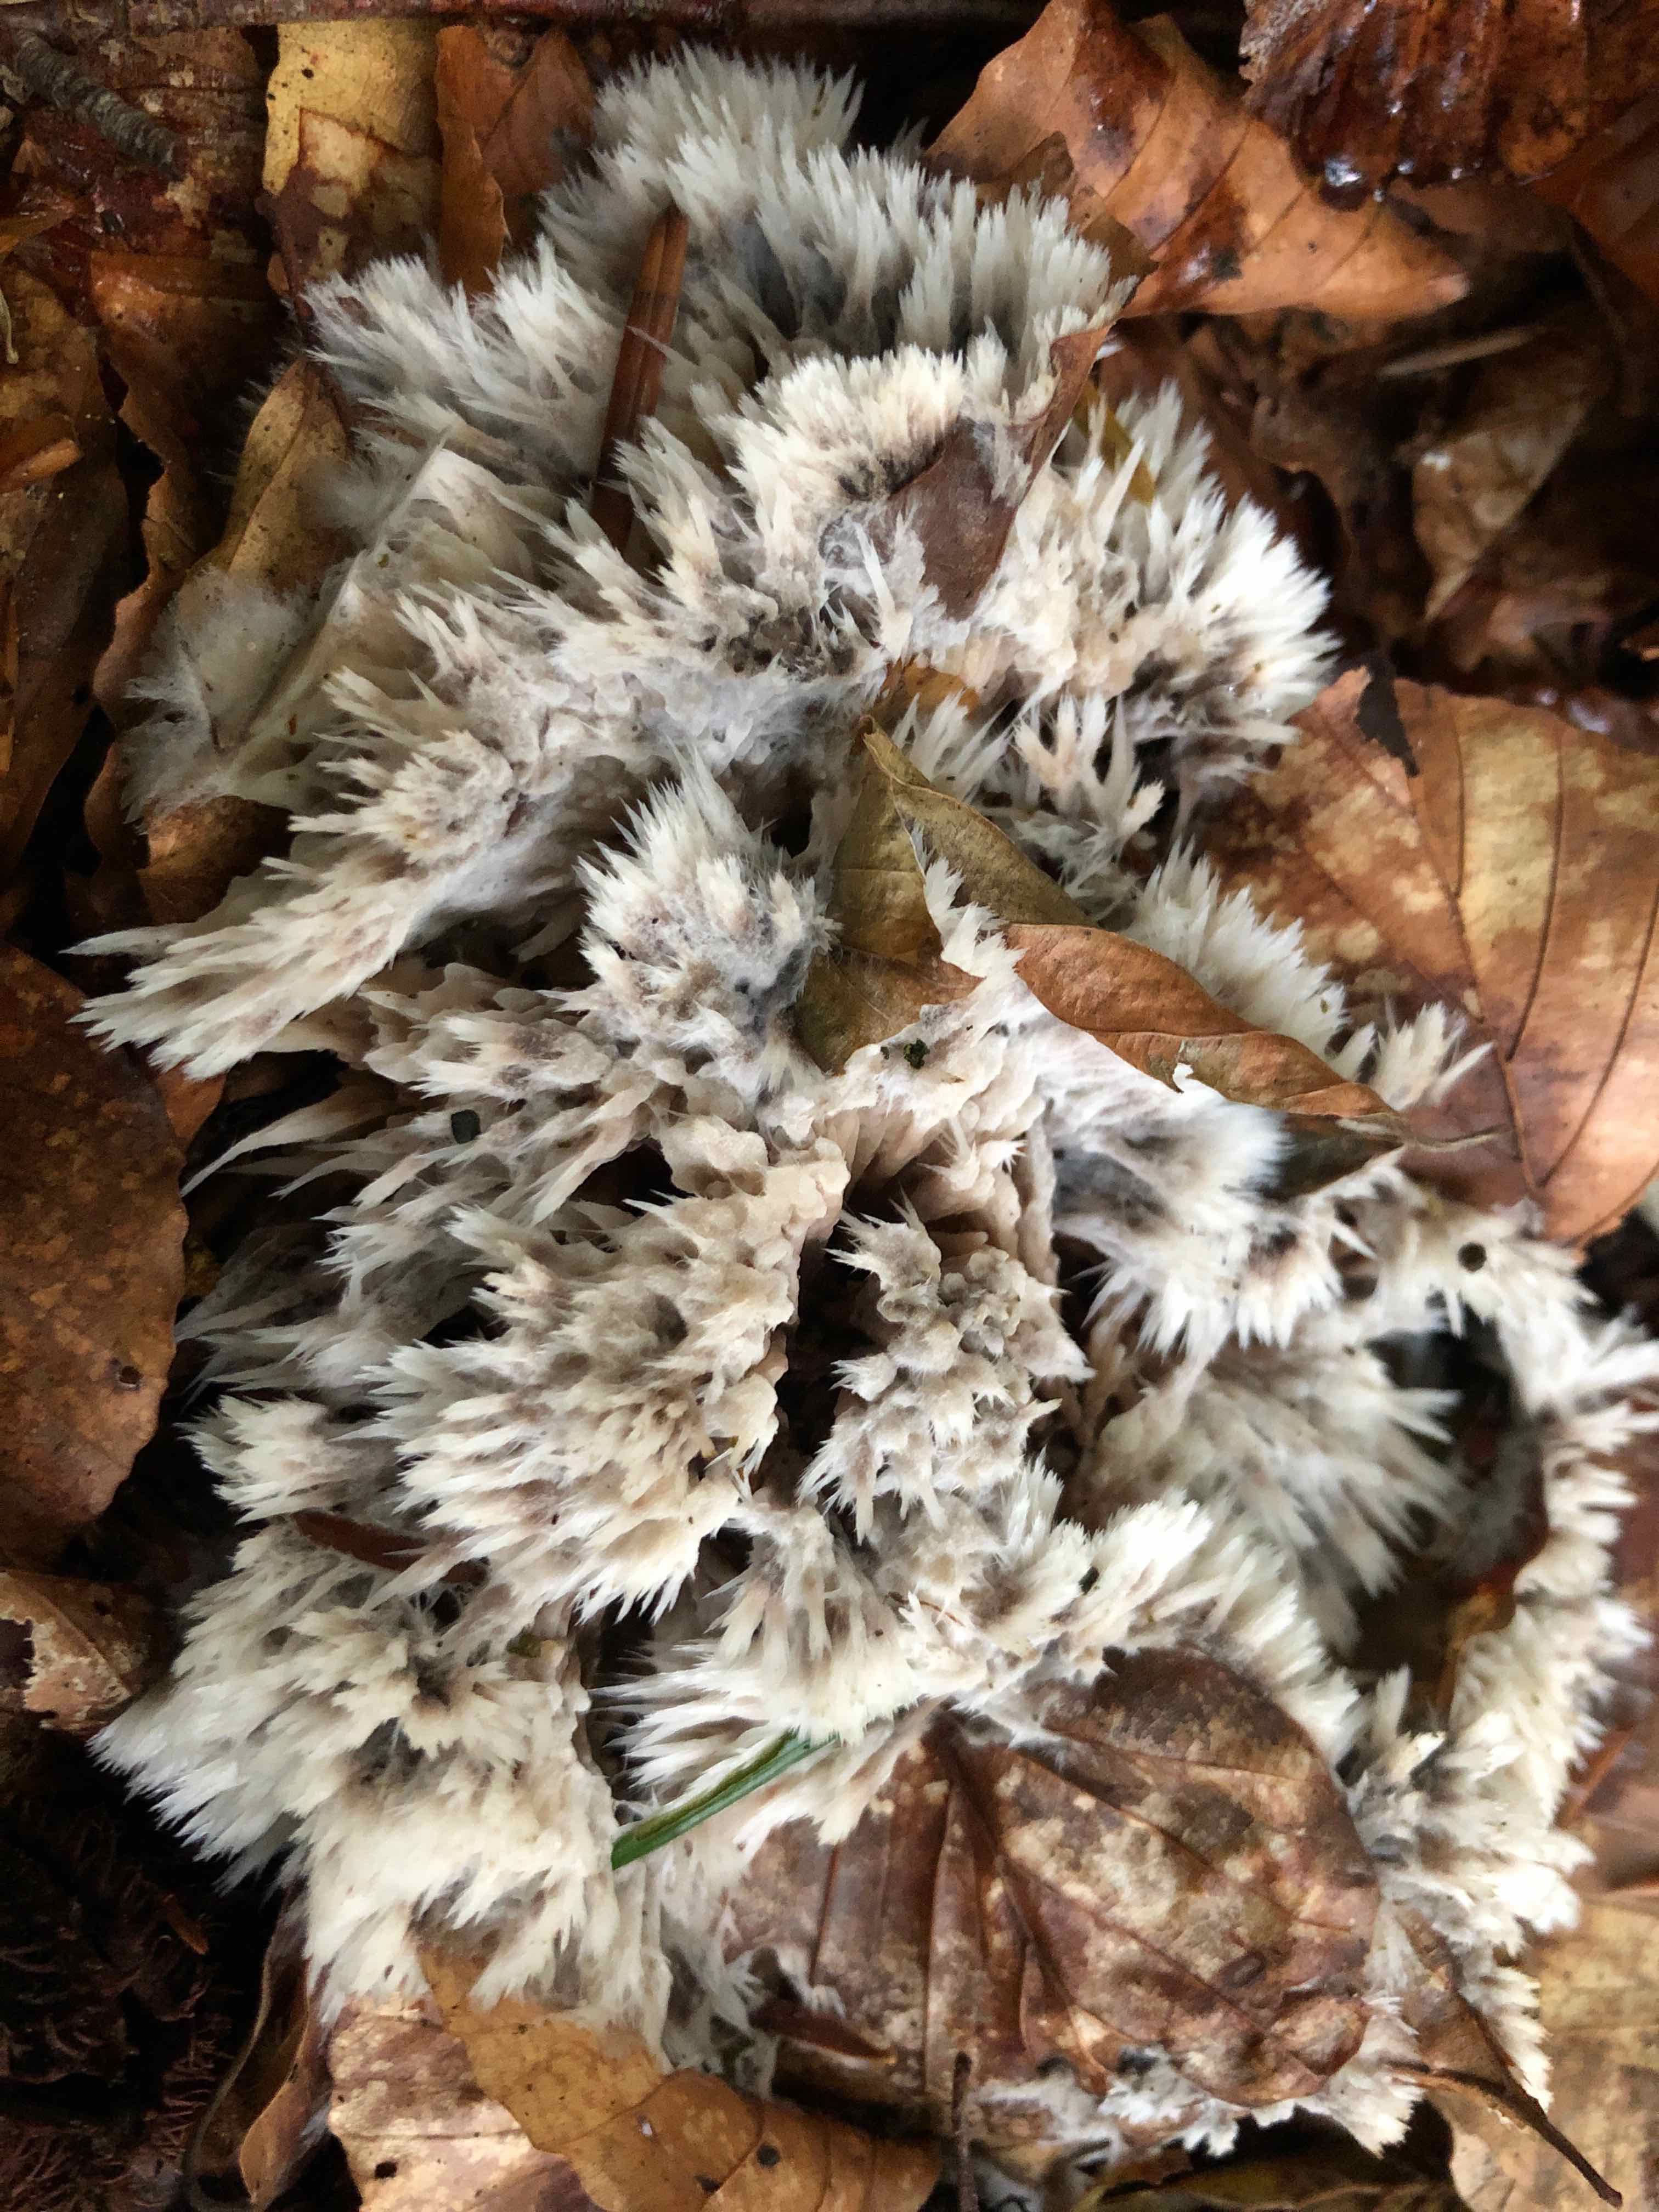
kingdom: Fungi
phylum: Basidiomycota
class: Agaricomycetes
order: Thelephorales
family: Thelephoraceae
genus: Thelephora
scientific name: Thelephora penicillata
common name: fladtrådt frynsesvamp
